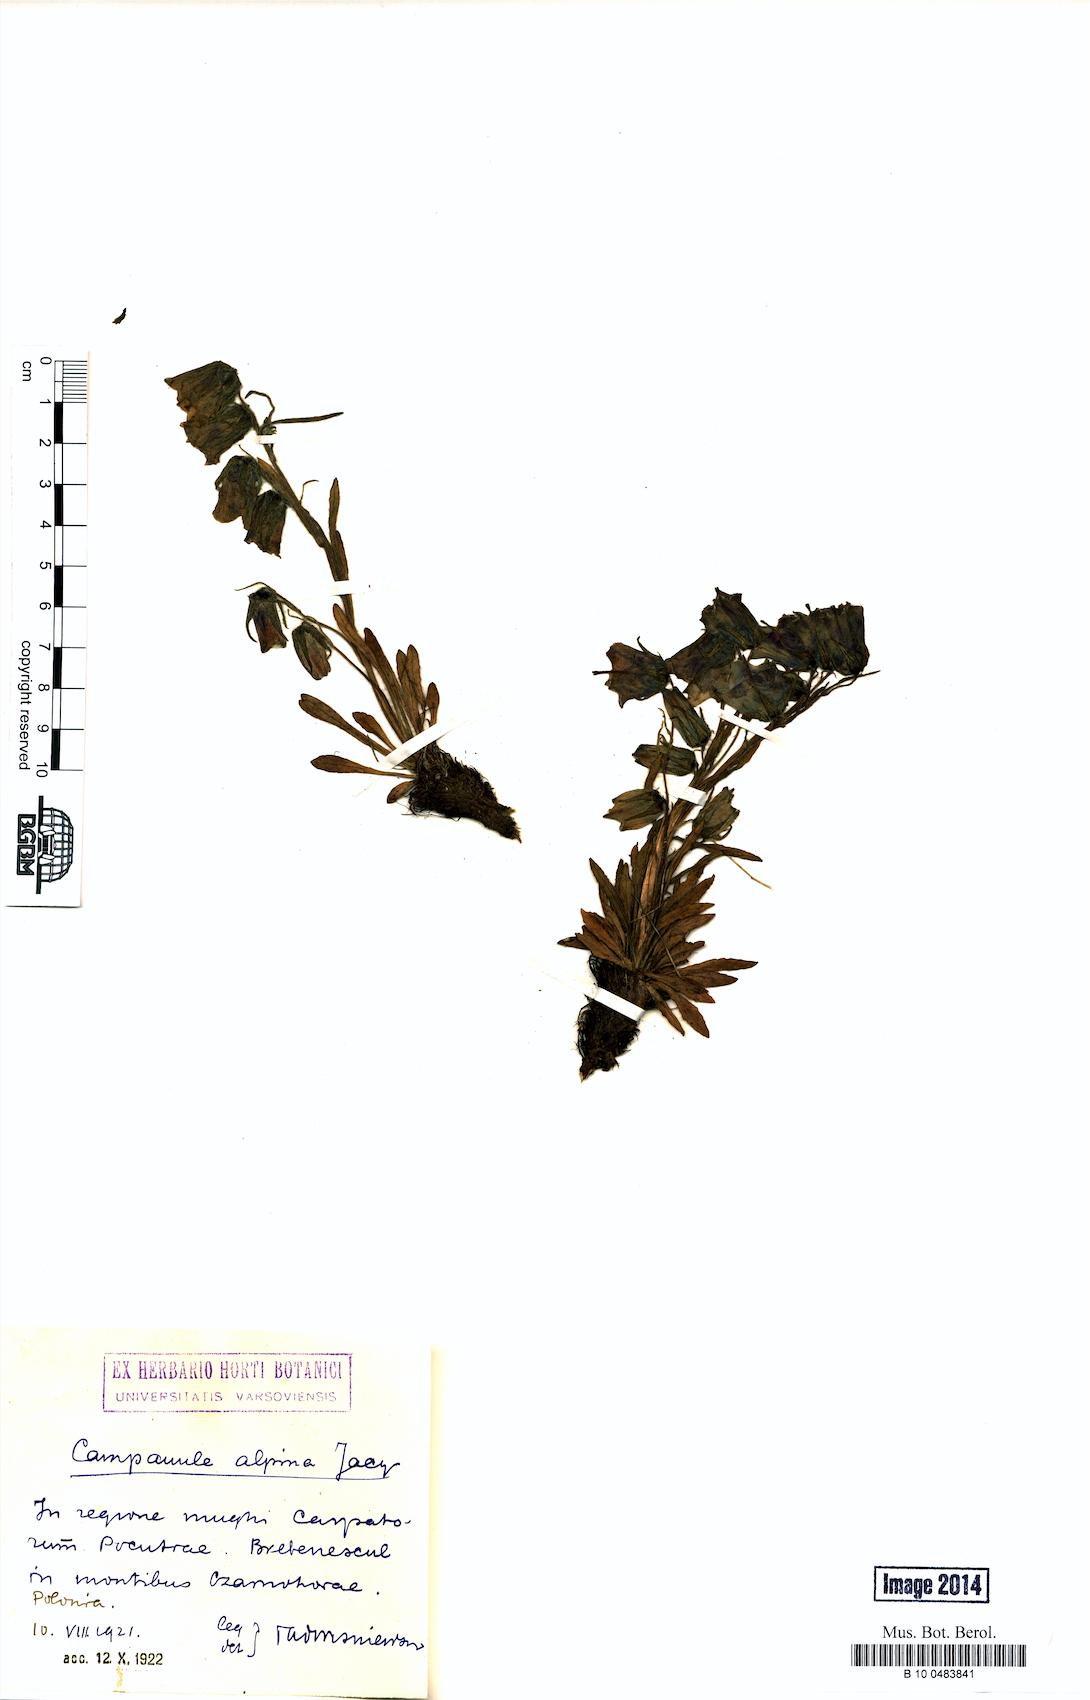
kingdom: Plantae
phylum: Tracheophyta
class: Magnoliopsida
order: Asterales
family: Campanulaceae
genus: Campanula
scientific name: Campanula alpina
